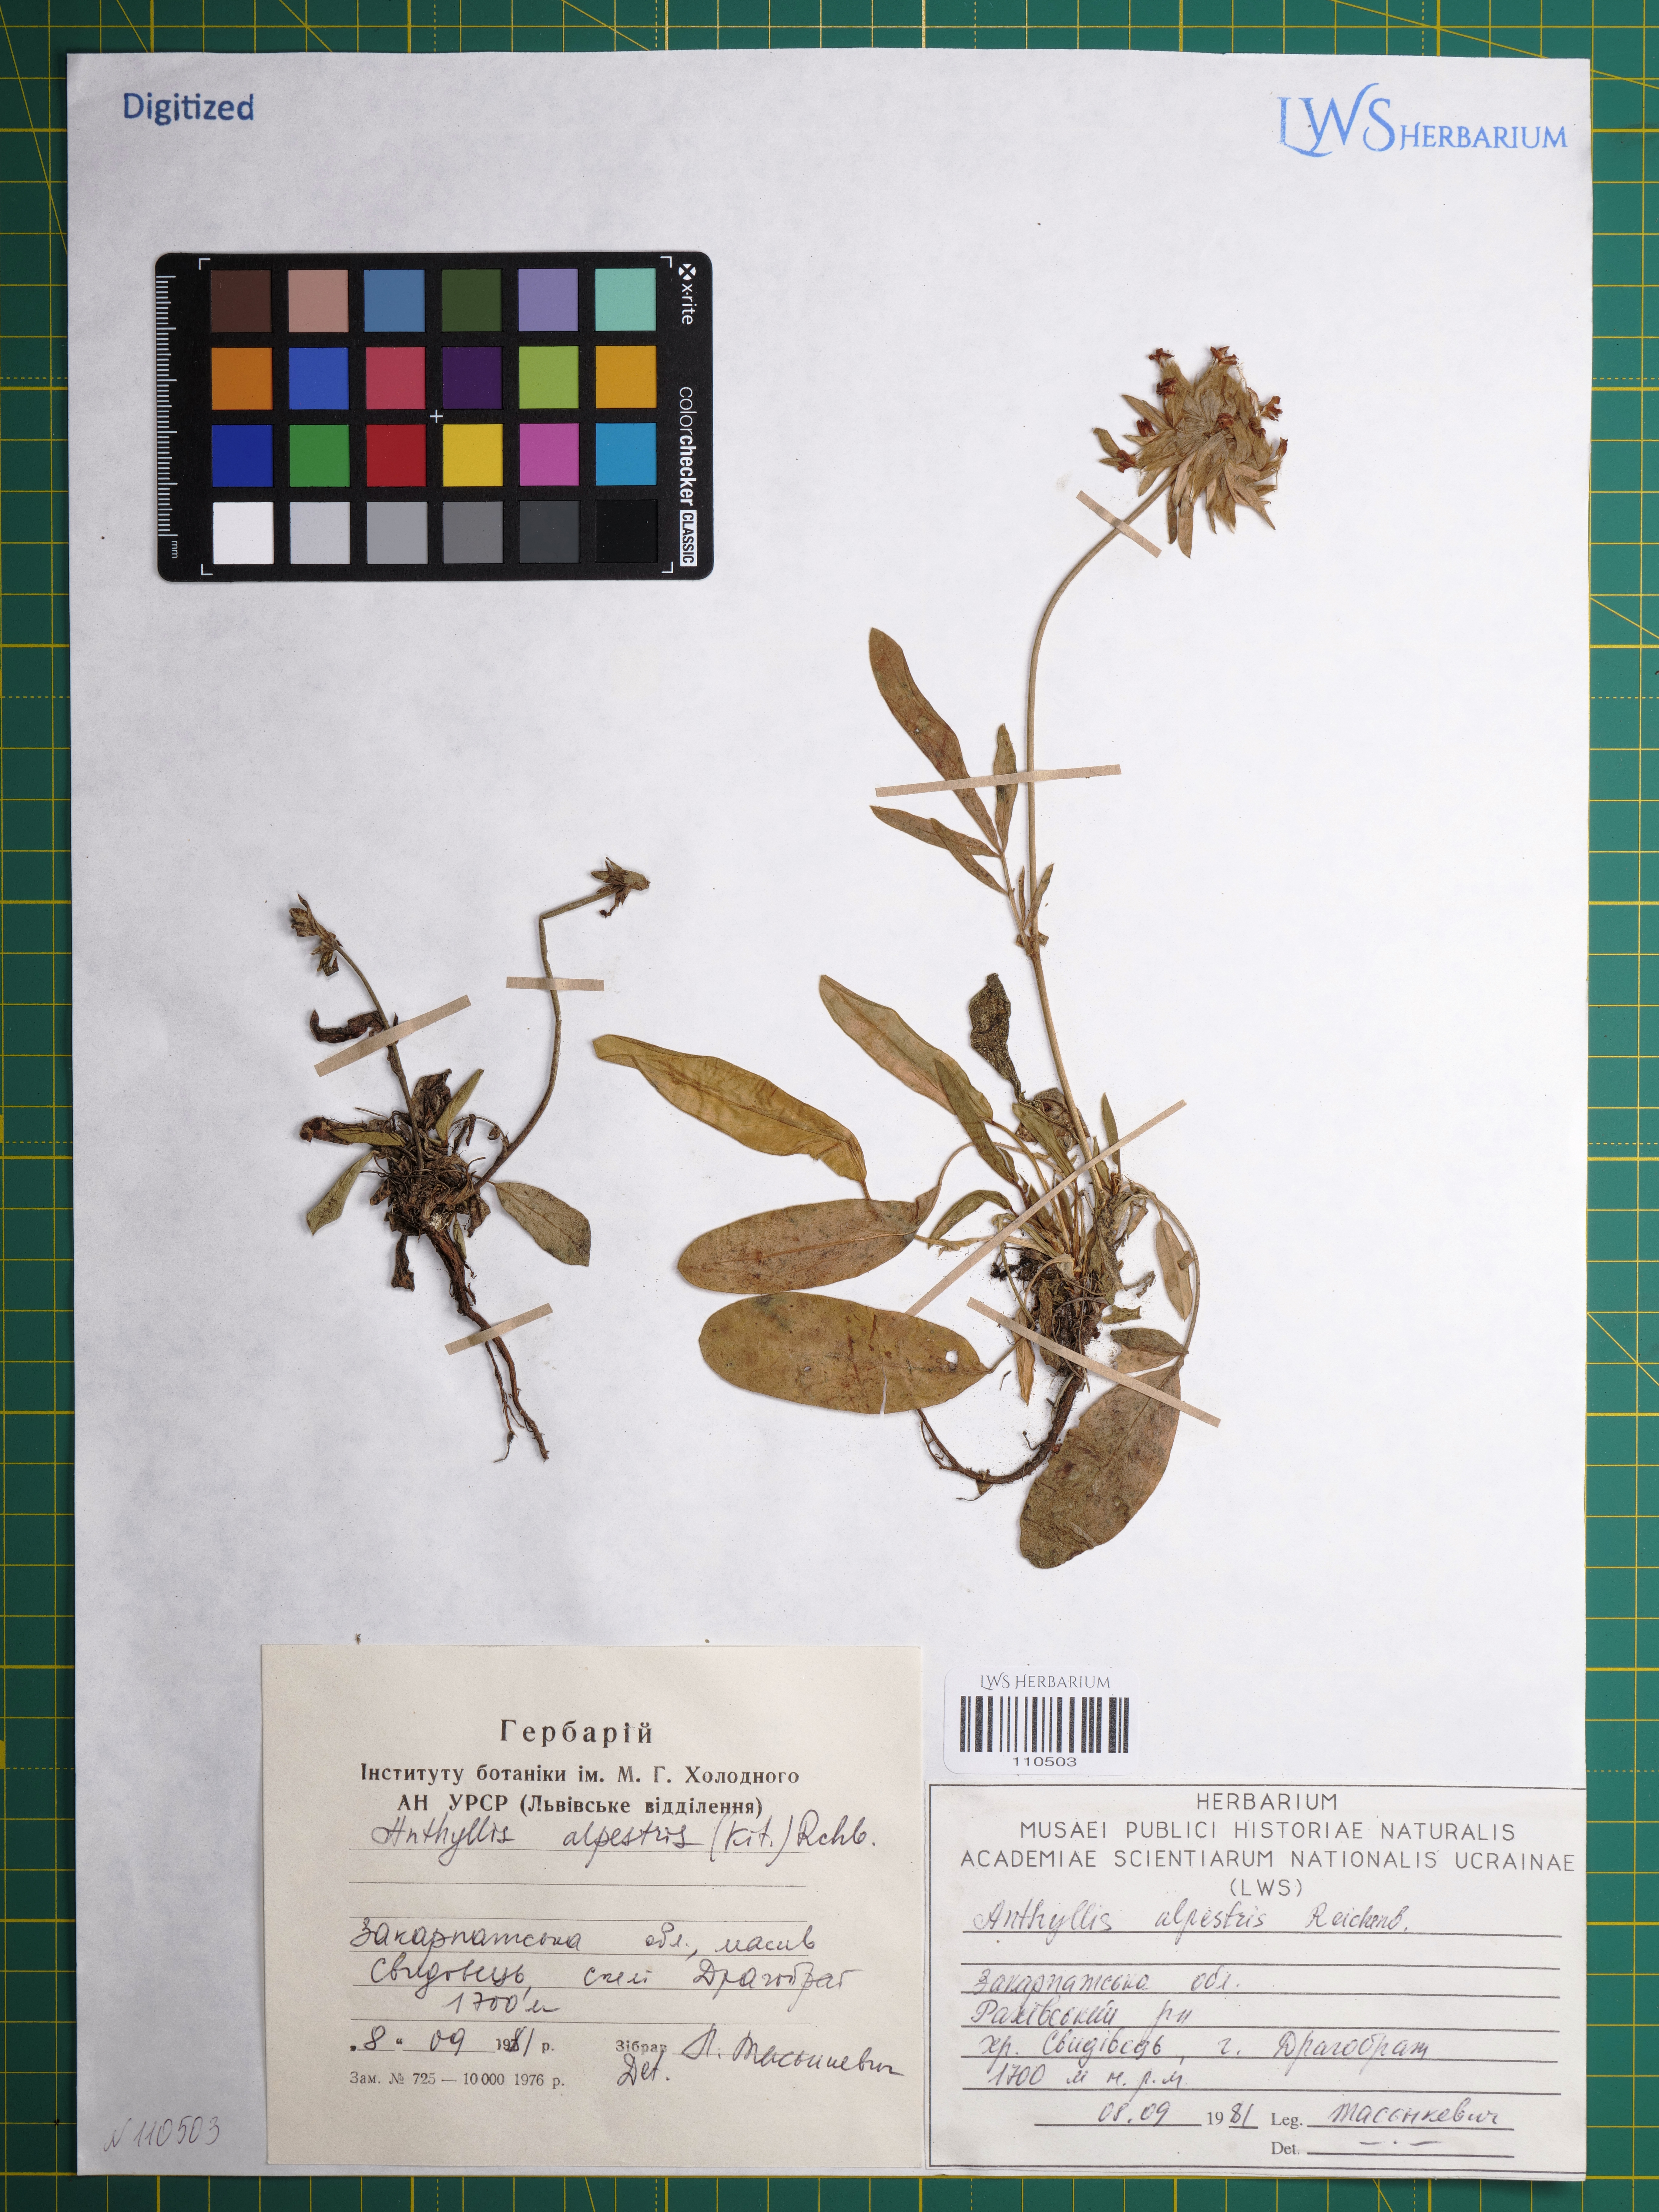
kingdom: Plantae
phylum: Tracheophyta
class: Magnoliopsida
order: Fabales
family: Fabaceae
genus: Anthyllis
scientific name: Anthyllis vulneraria
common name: Kidney vetch
